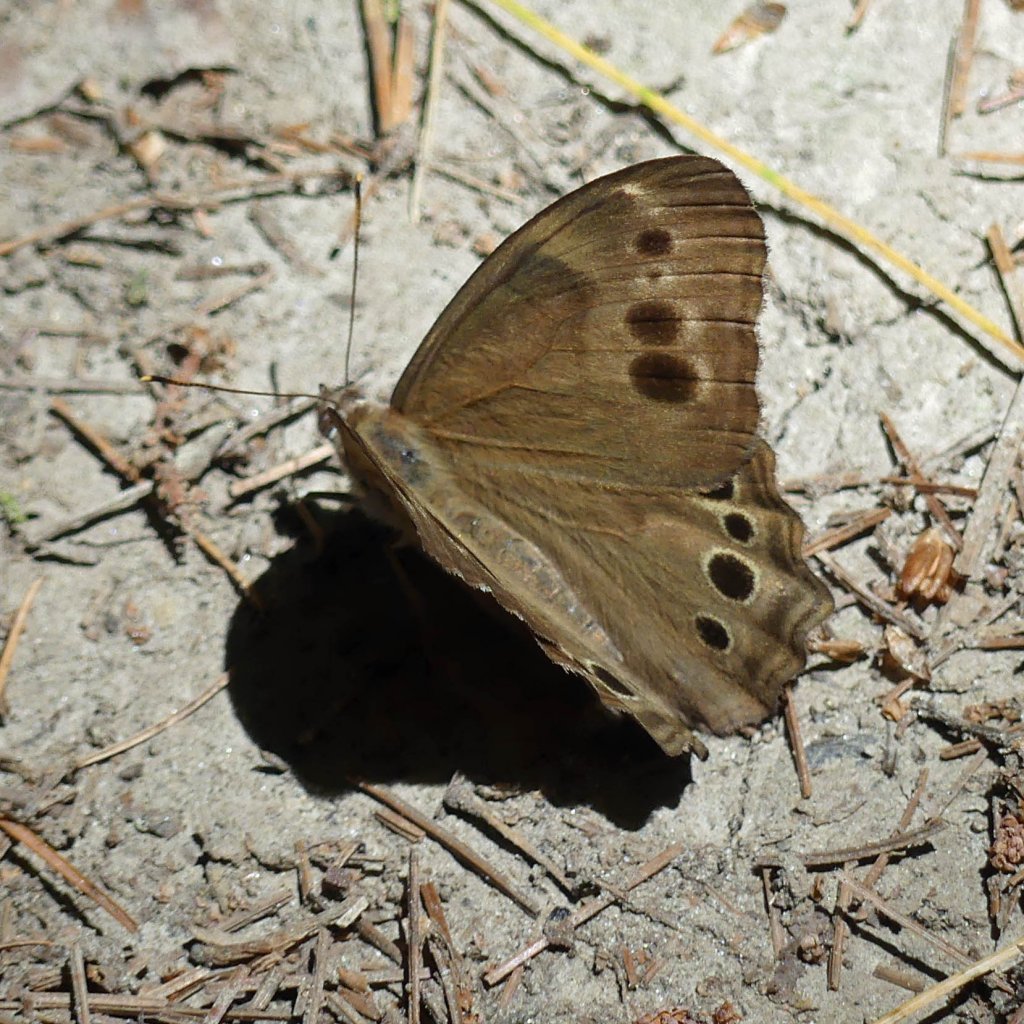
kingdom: Animalia
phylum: Arthropoda
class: Insecta
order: Lepidoptera
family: Nymphalidae
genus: Lethe
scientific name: Lethe anthedon
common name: Northern Pearly-Eye
